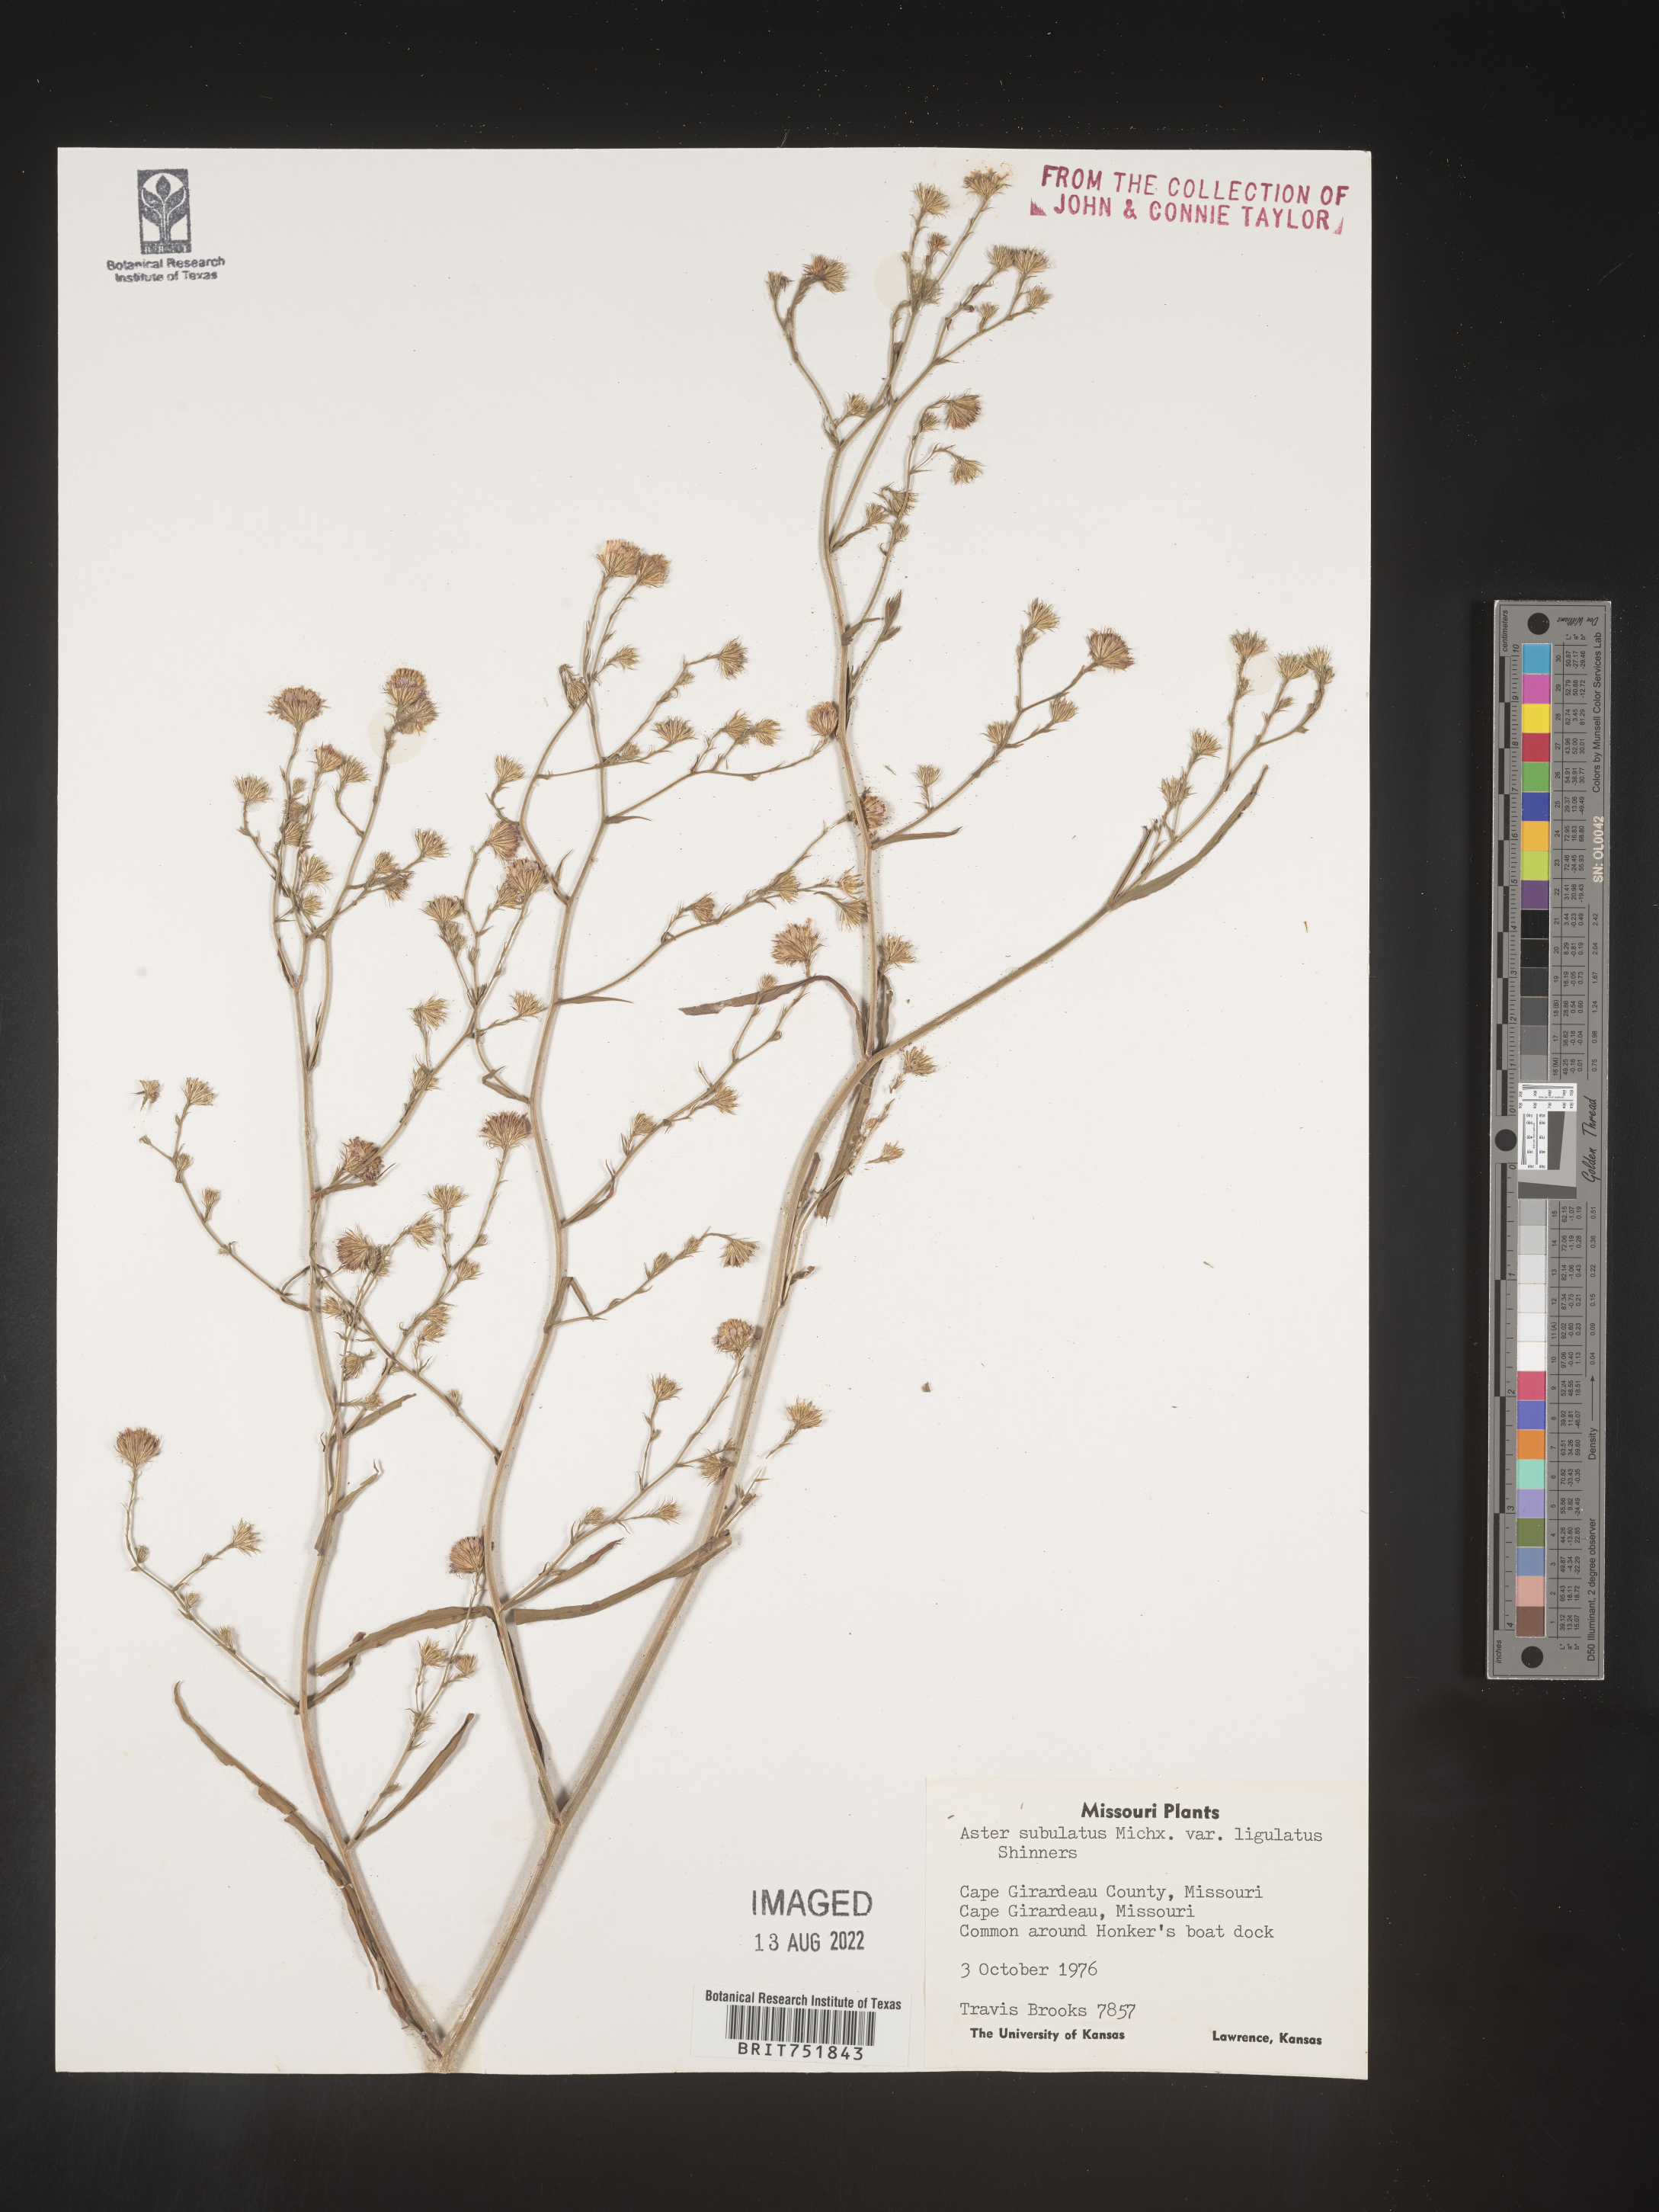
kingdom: Plantae
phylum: Tracheophyta
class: Magnoliopsida
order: Asterales
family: Asteraceae
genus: Symphyotrichum
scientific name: Symphyotrichum divaricatum
